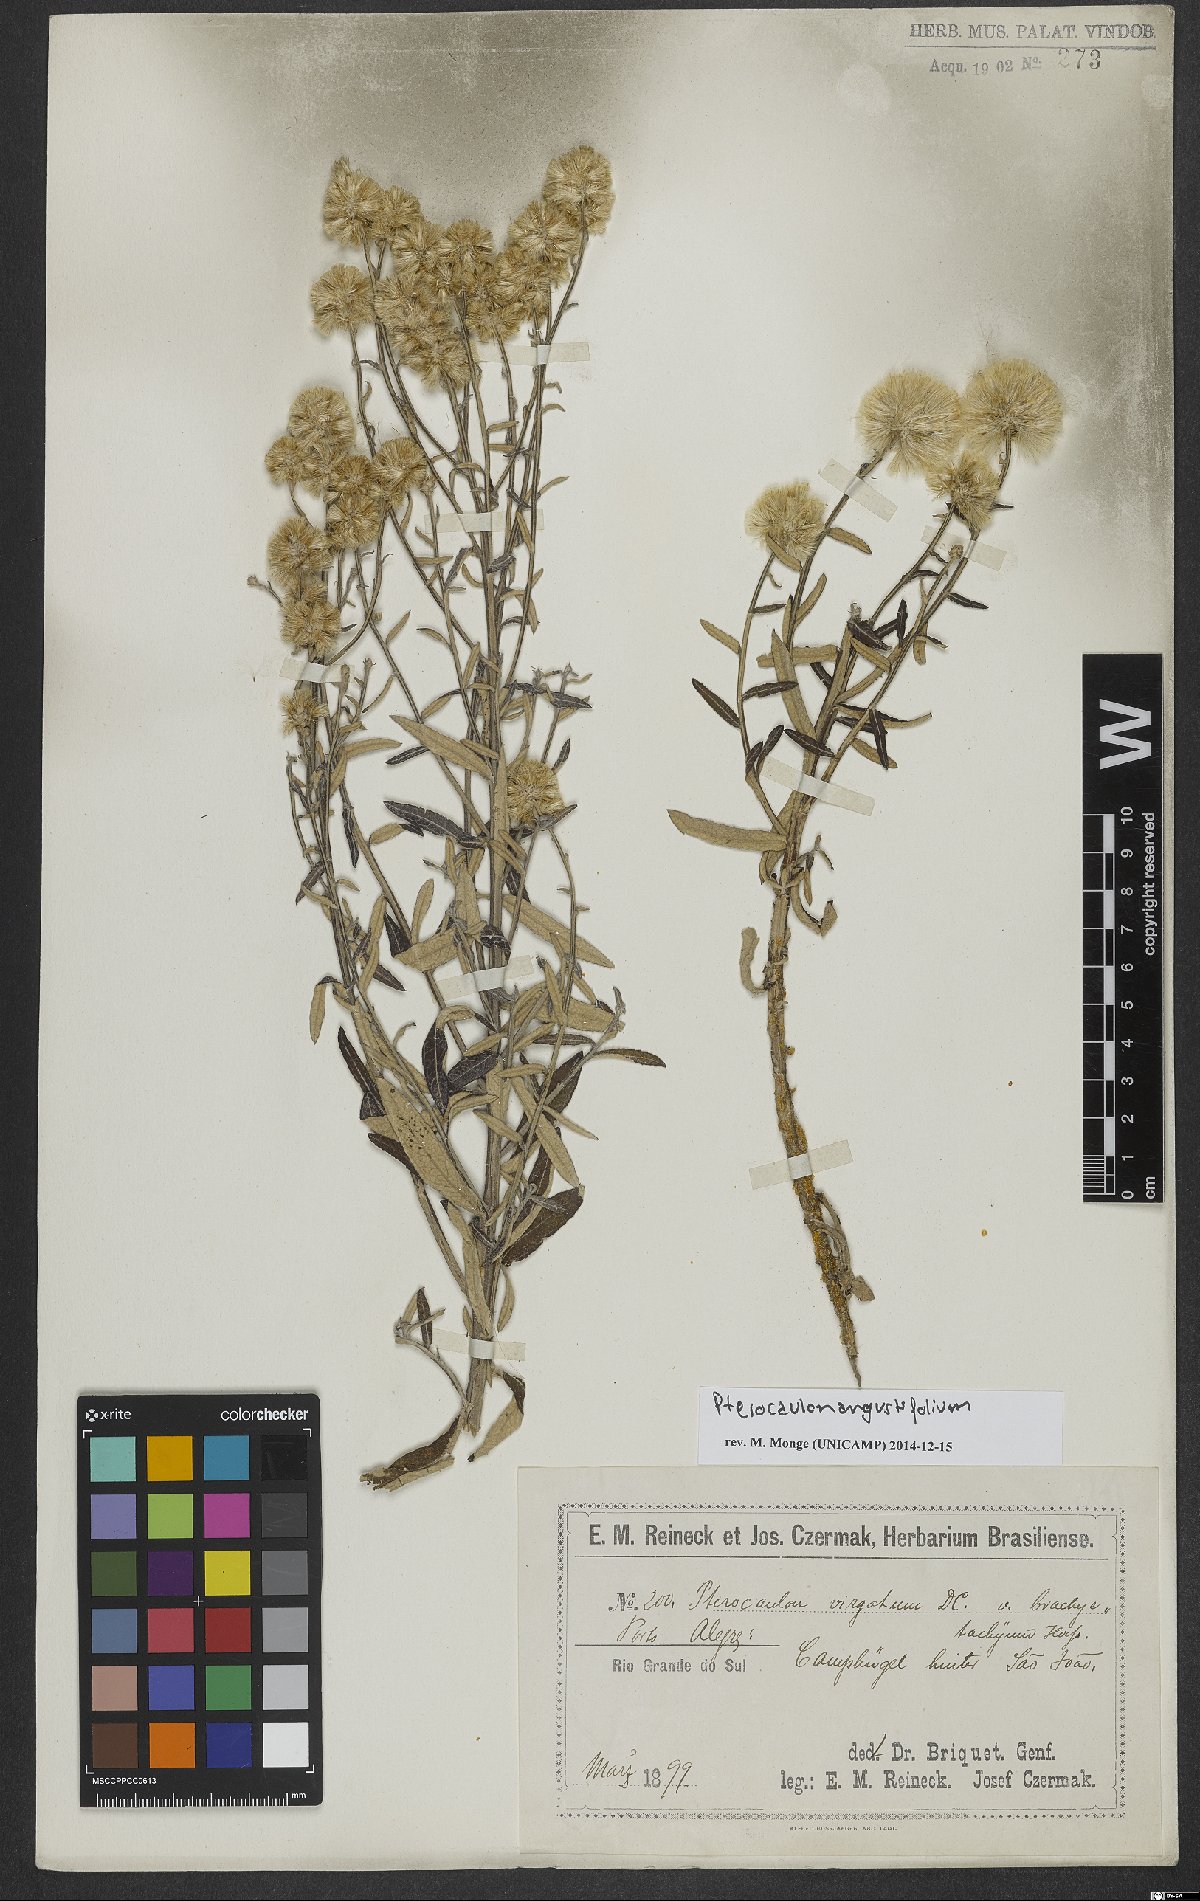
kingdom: Plantae
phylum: Tracheophyta
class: Magnoliopsida
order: Asterales
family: Asteraceae
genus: Pterocaulon
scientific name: Pterocaulon angustifolium
